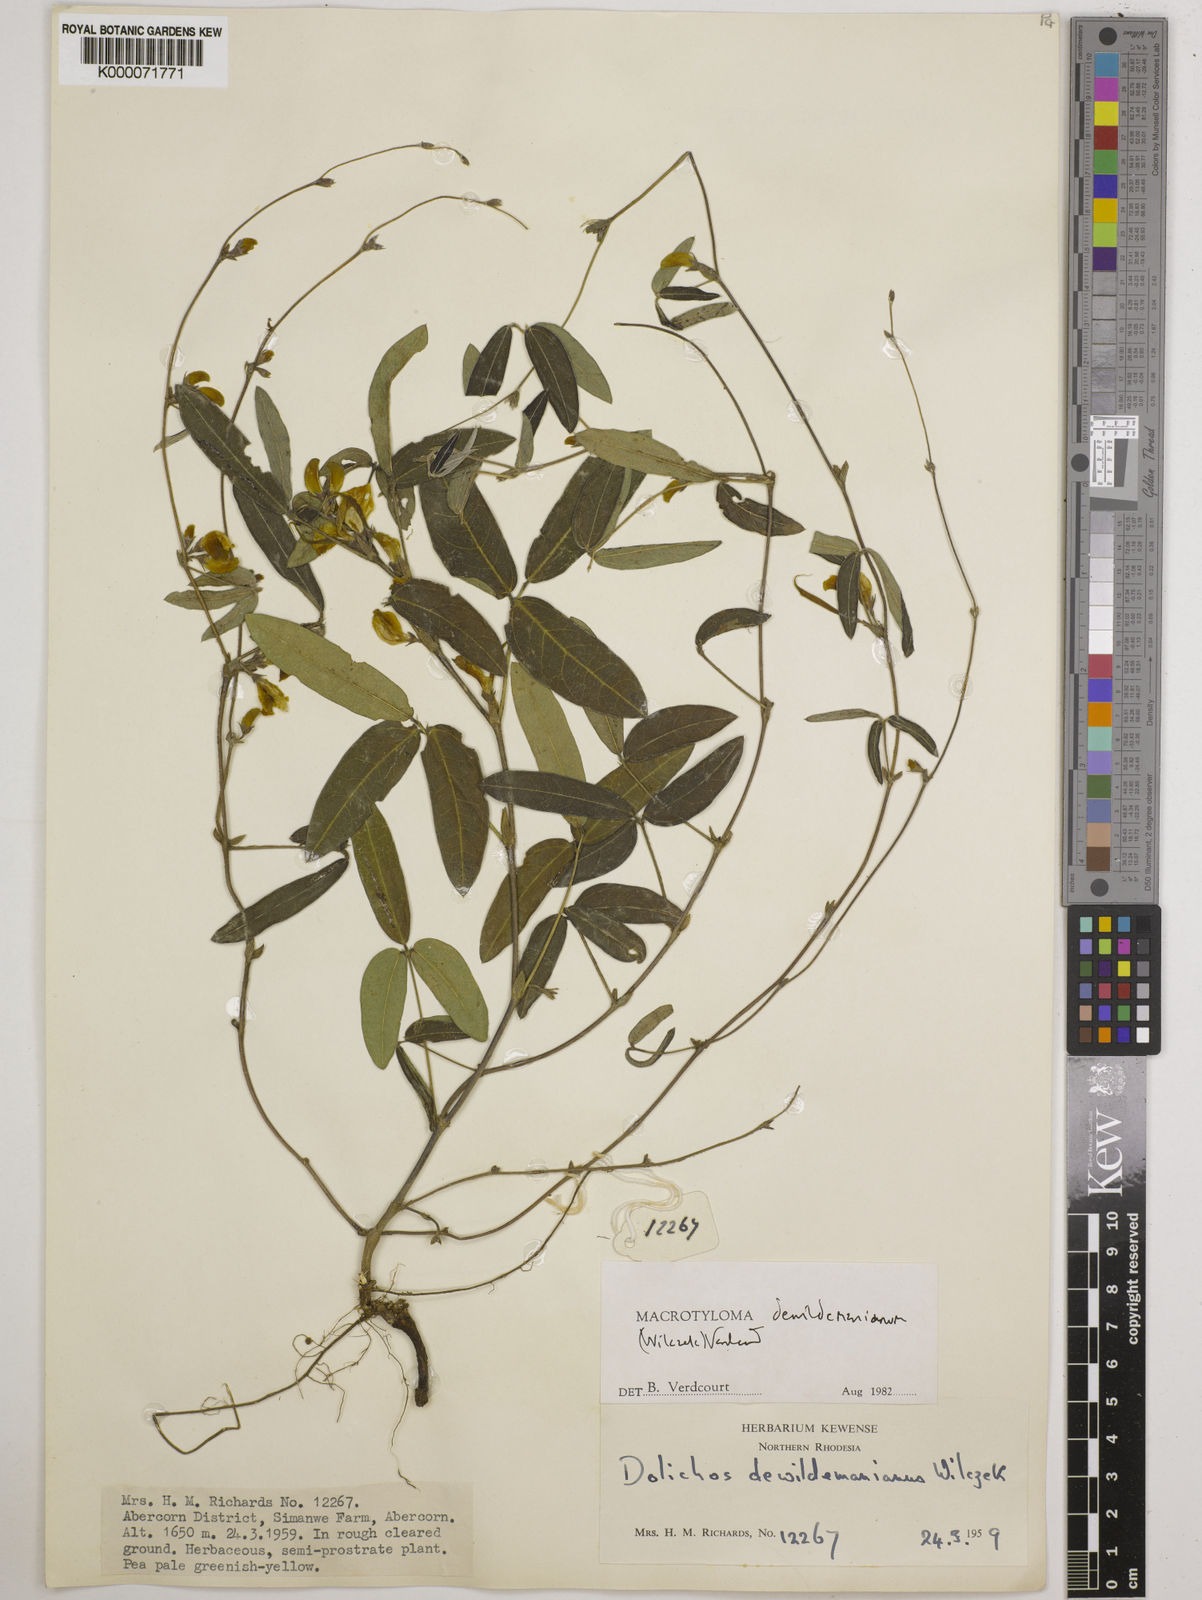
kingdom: Plantae
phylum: Tracheophyta
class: Magnoliopsida
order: Fabales
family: Fabaceae
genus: Macrotyloma
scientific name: Macrotyloma dewildemanianum
